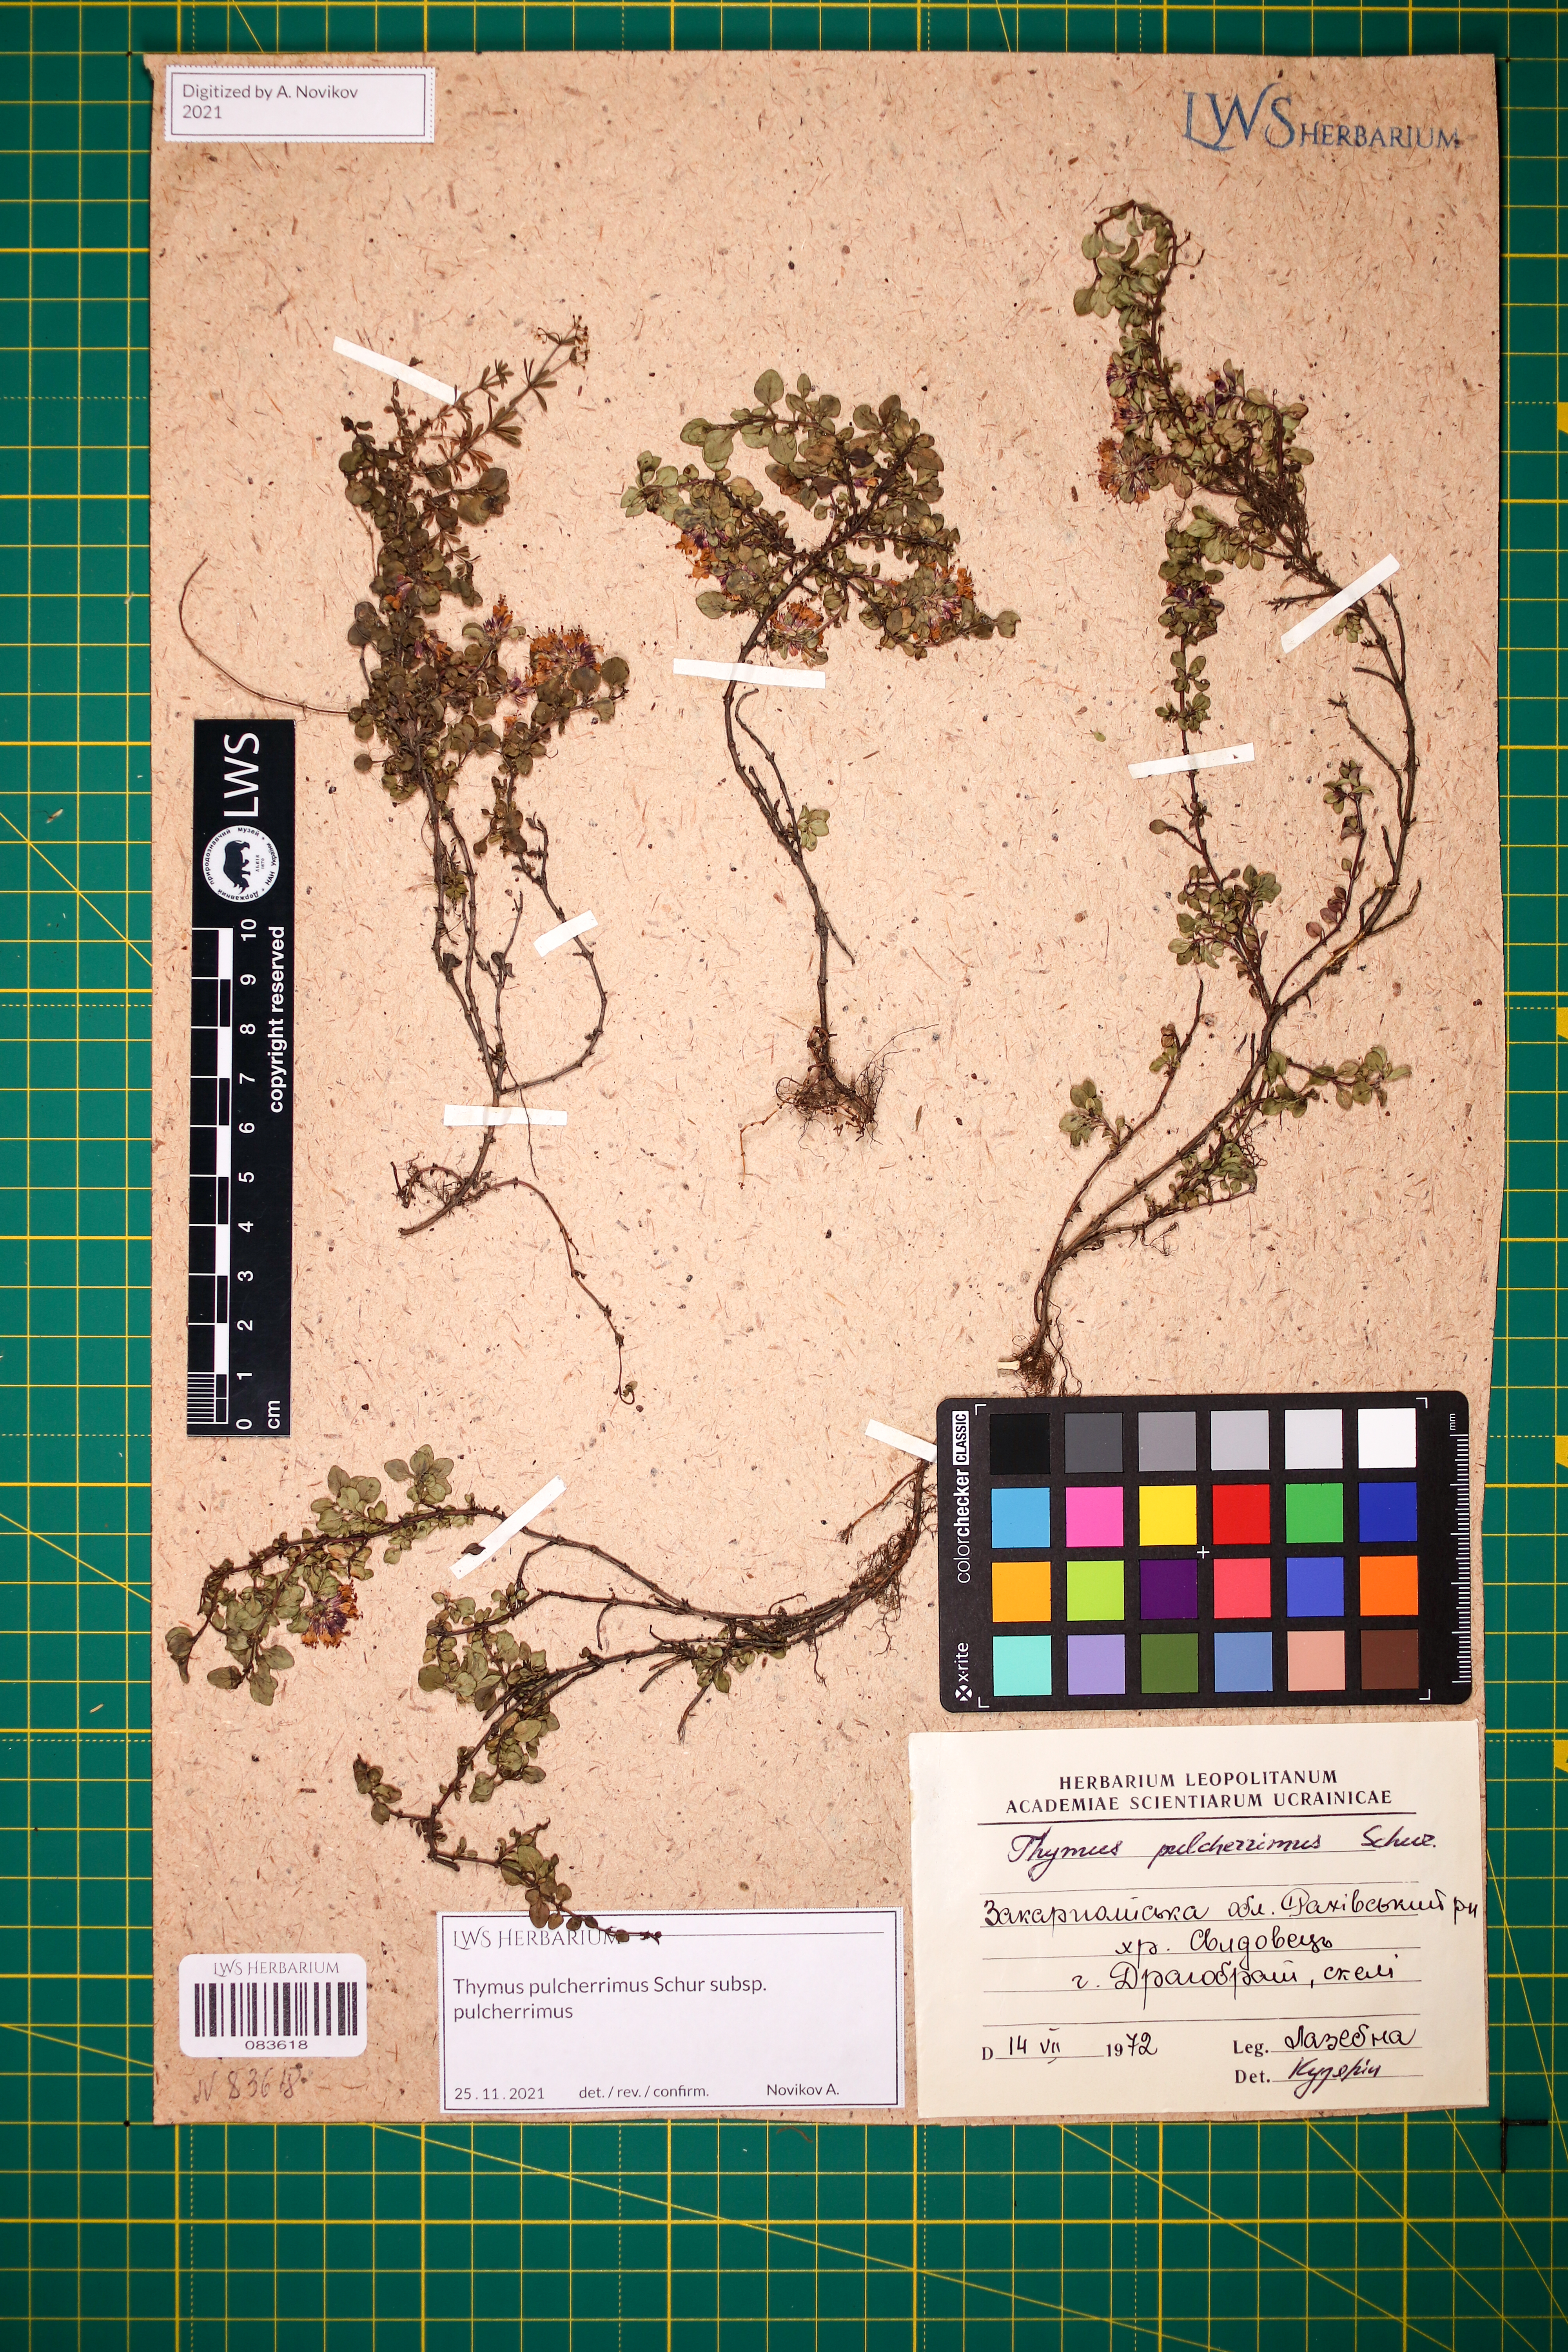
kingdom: Plantae
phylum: Tracheophyta
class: Magnoliopsida
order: Lamiales
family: Lamiaceae
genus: Thymus
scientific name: Thymus pulcherrimus
